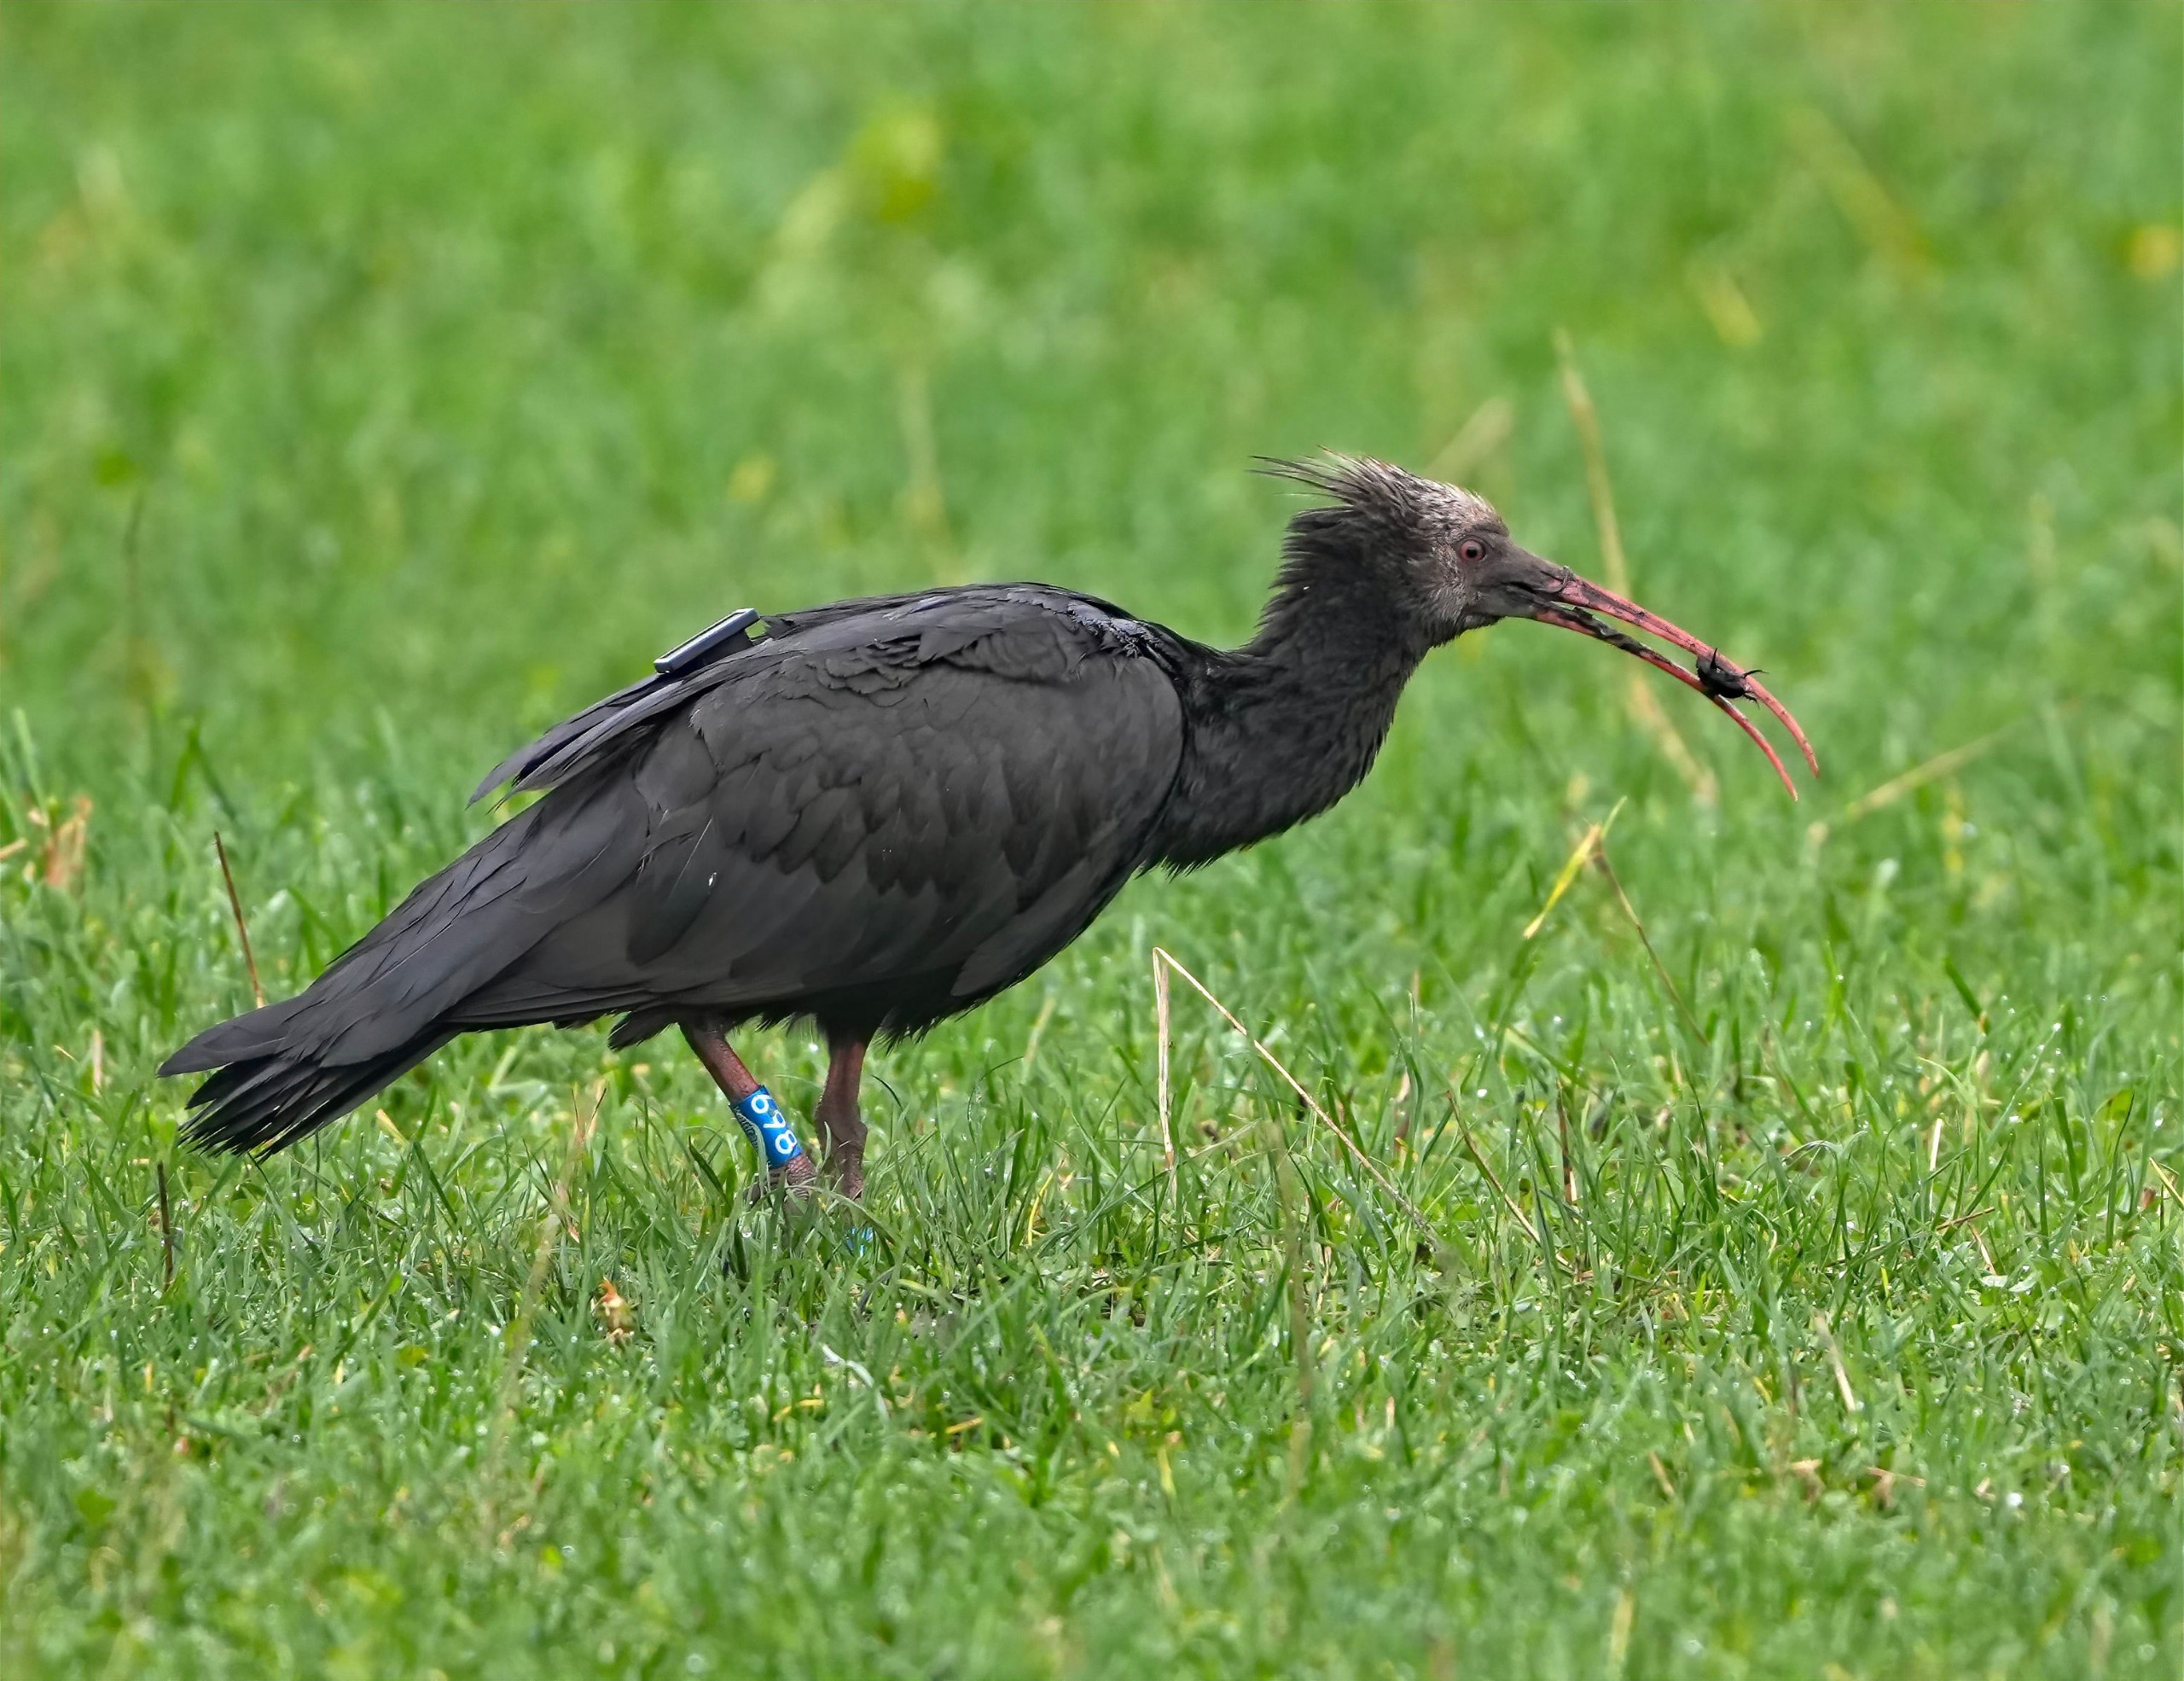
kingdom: Animalia
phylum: Chordata
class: Aves
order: Pelecaniformes
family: Threskiornithidae
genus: Geronticus
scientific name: Geronticus eremita
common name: Eremitibis
